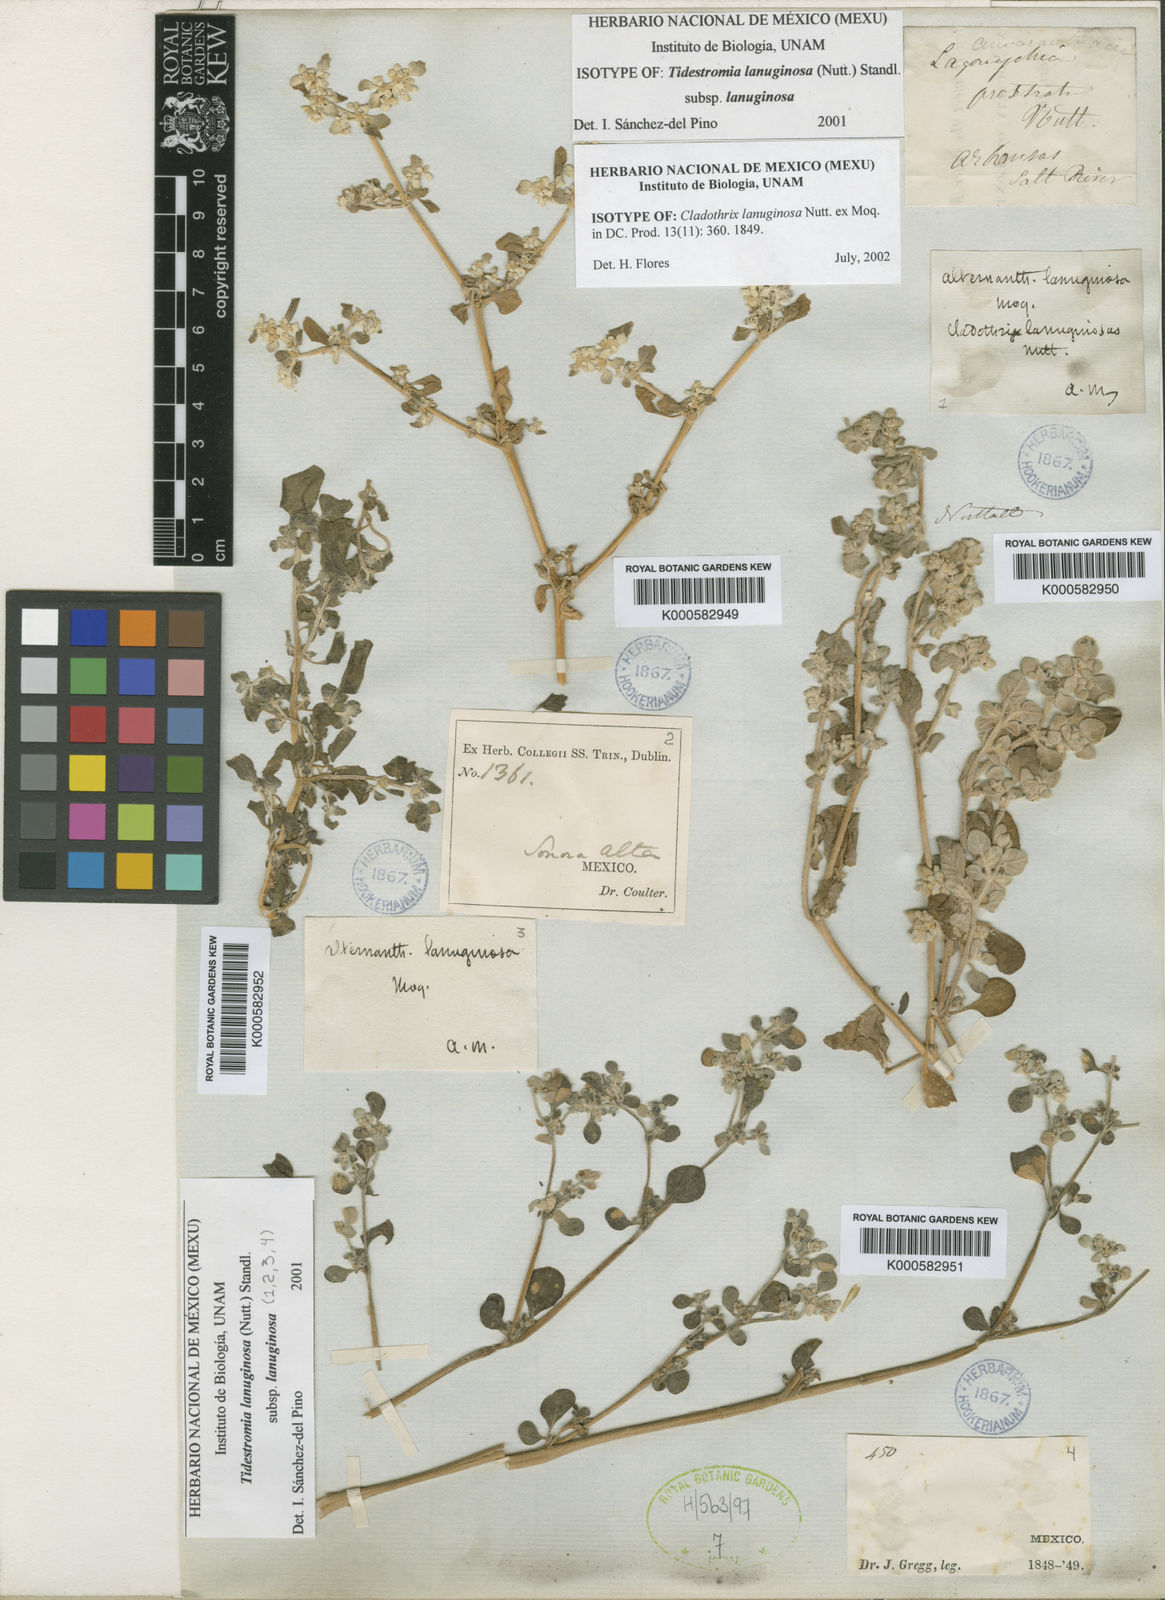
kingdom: Plantae
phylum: Tracheophyta
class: Magnoliopsida
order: Caryophyllales
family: Amaranthaceae
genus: Tidestromia
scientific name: Tidestromia lanuginosa
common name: Woolly tidestromia
